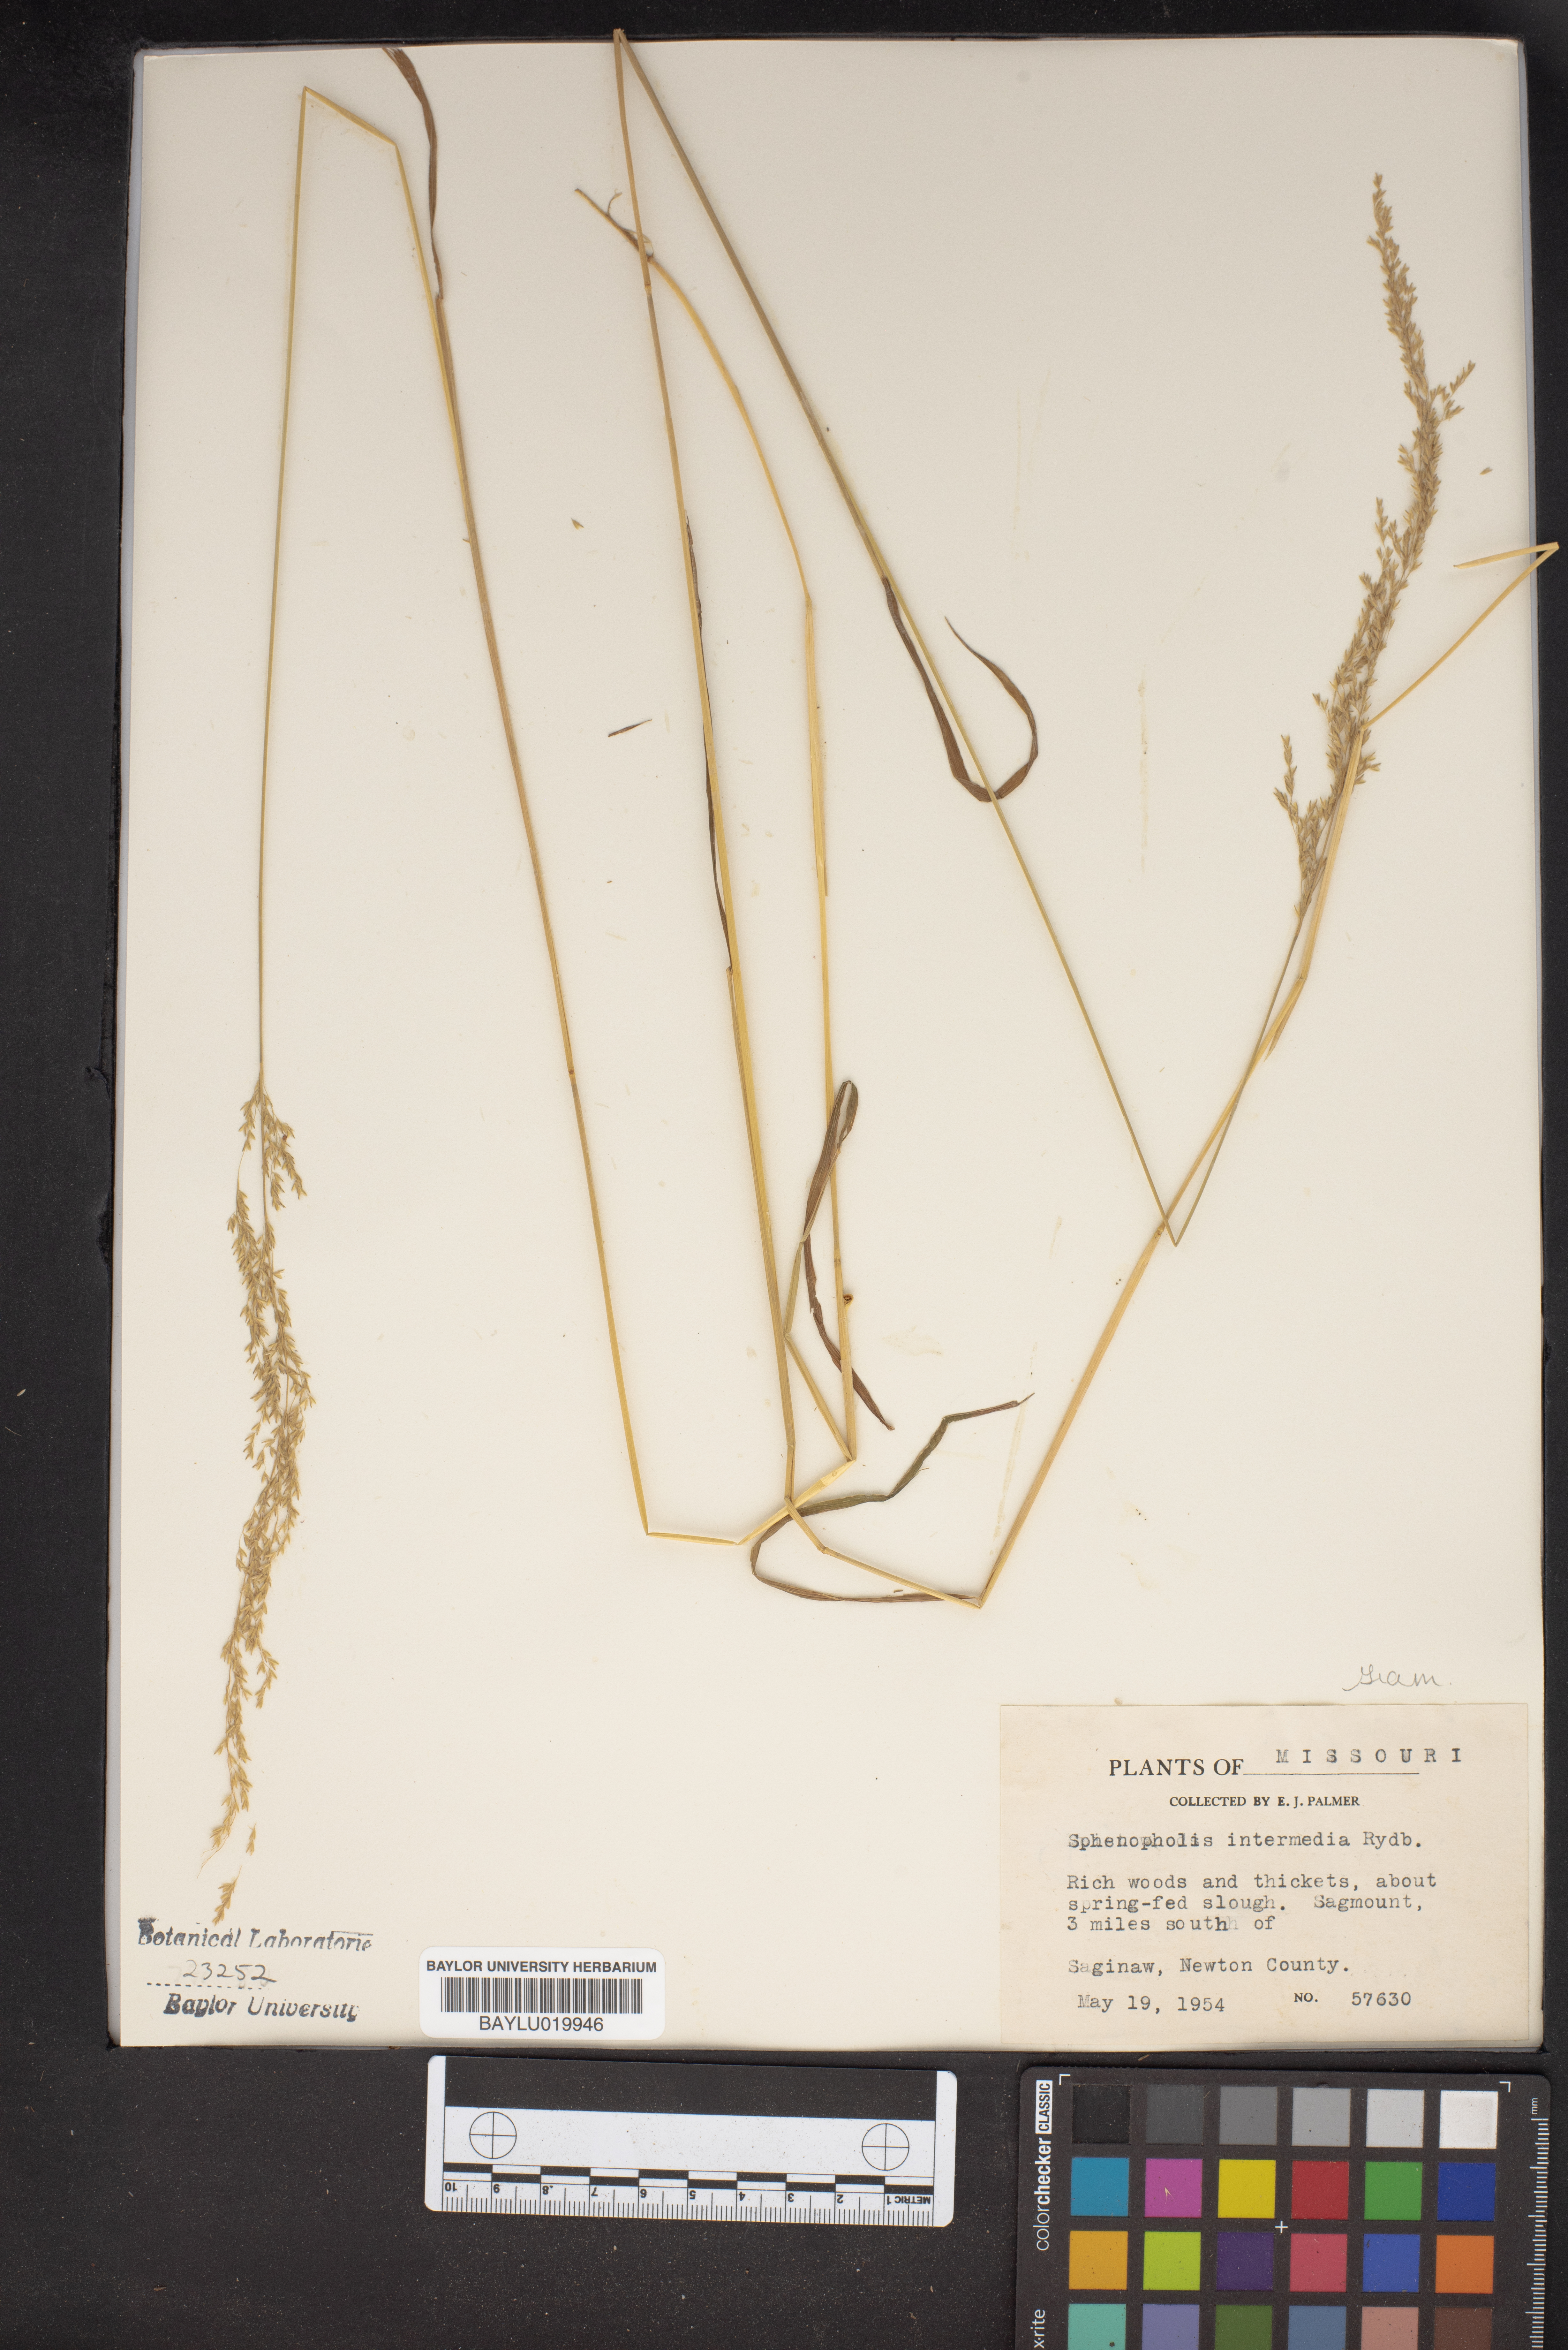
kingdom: Plantae
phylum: Tracheophyta
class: Liliopsida
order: Poales
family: Poaceae
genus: Sphenopholis
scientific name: Sphenopholis intermedia
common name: Intermediate eaton's grass
